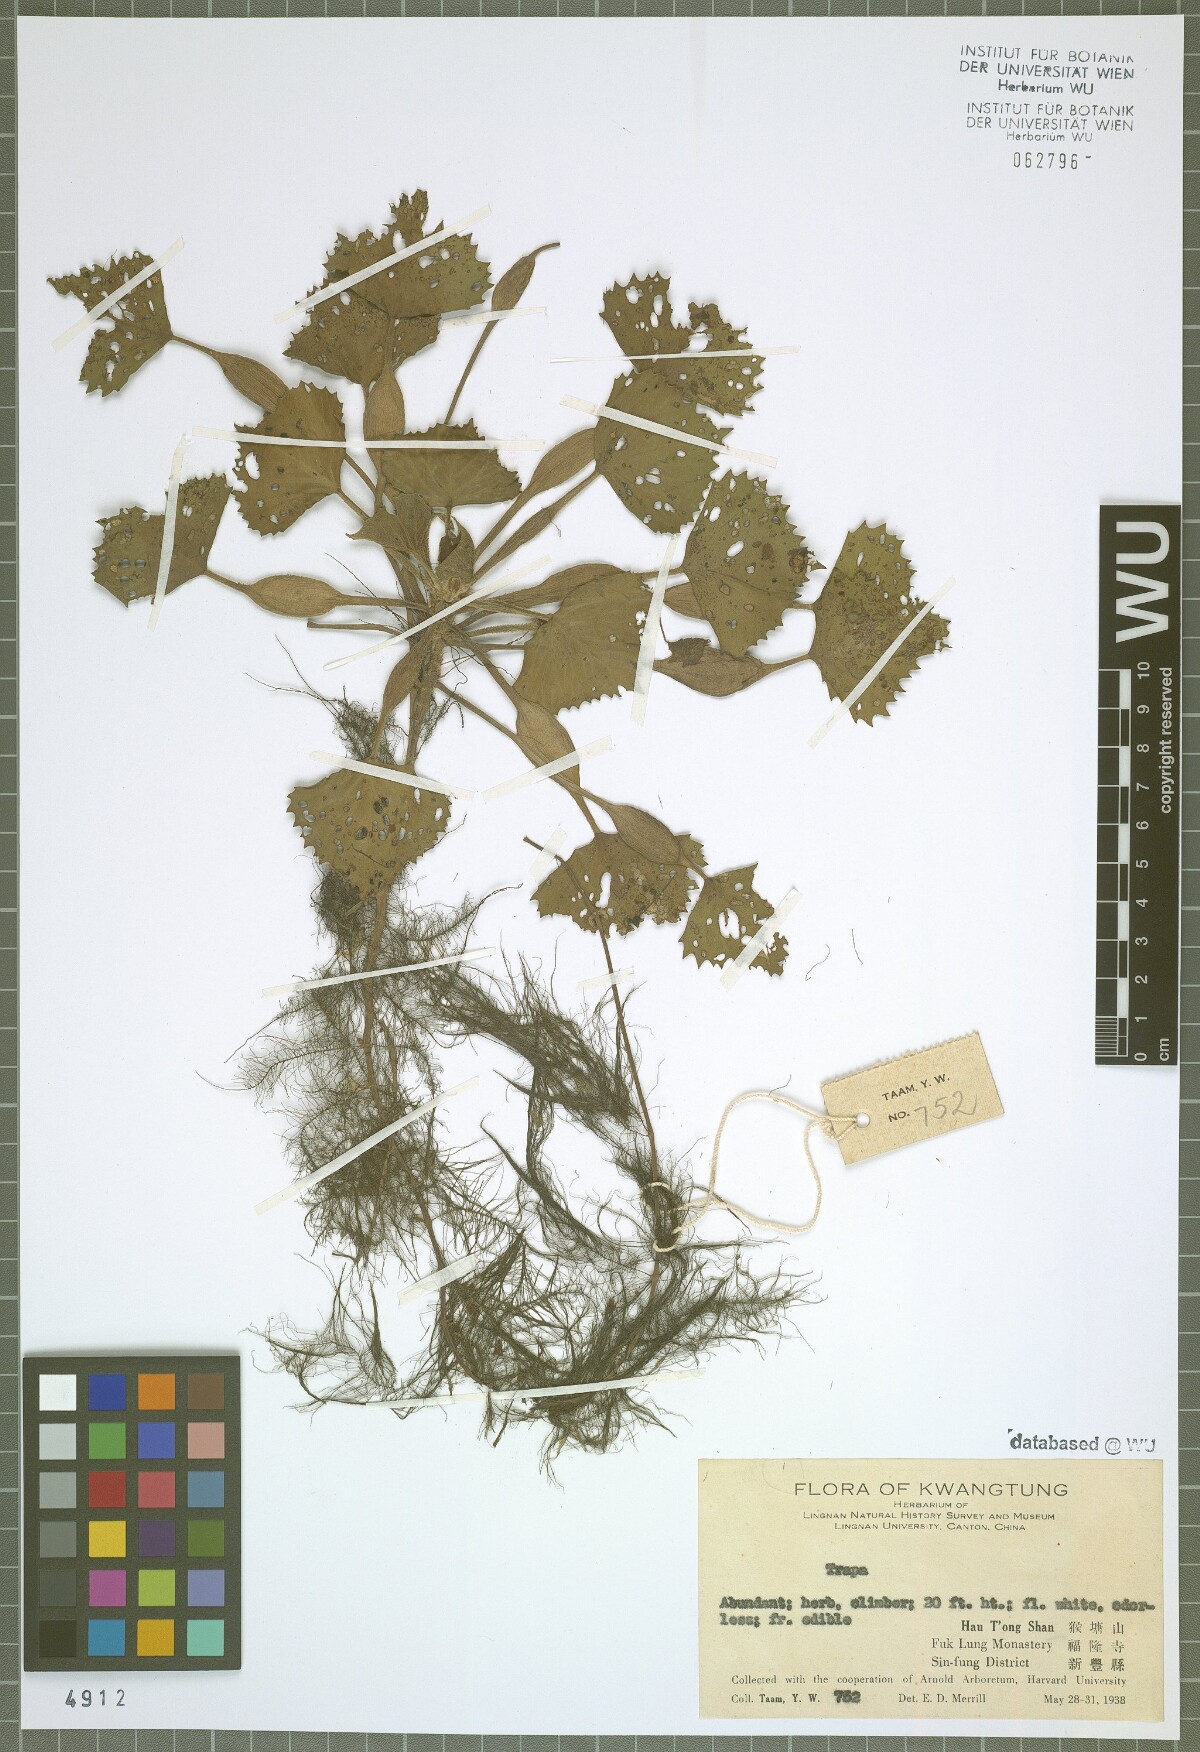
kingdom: Plantae
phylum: Tracheophyta
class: Magnoliopsida
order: Myrtales
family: Lythraceae
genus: Trapa
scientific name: Trapa
